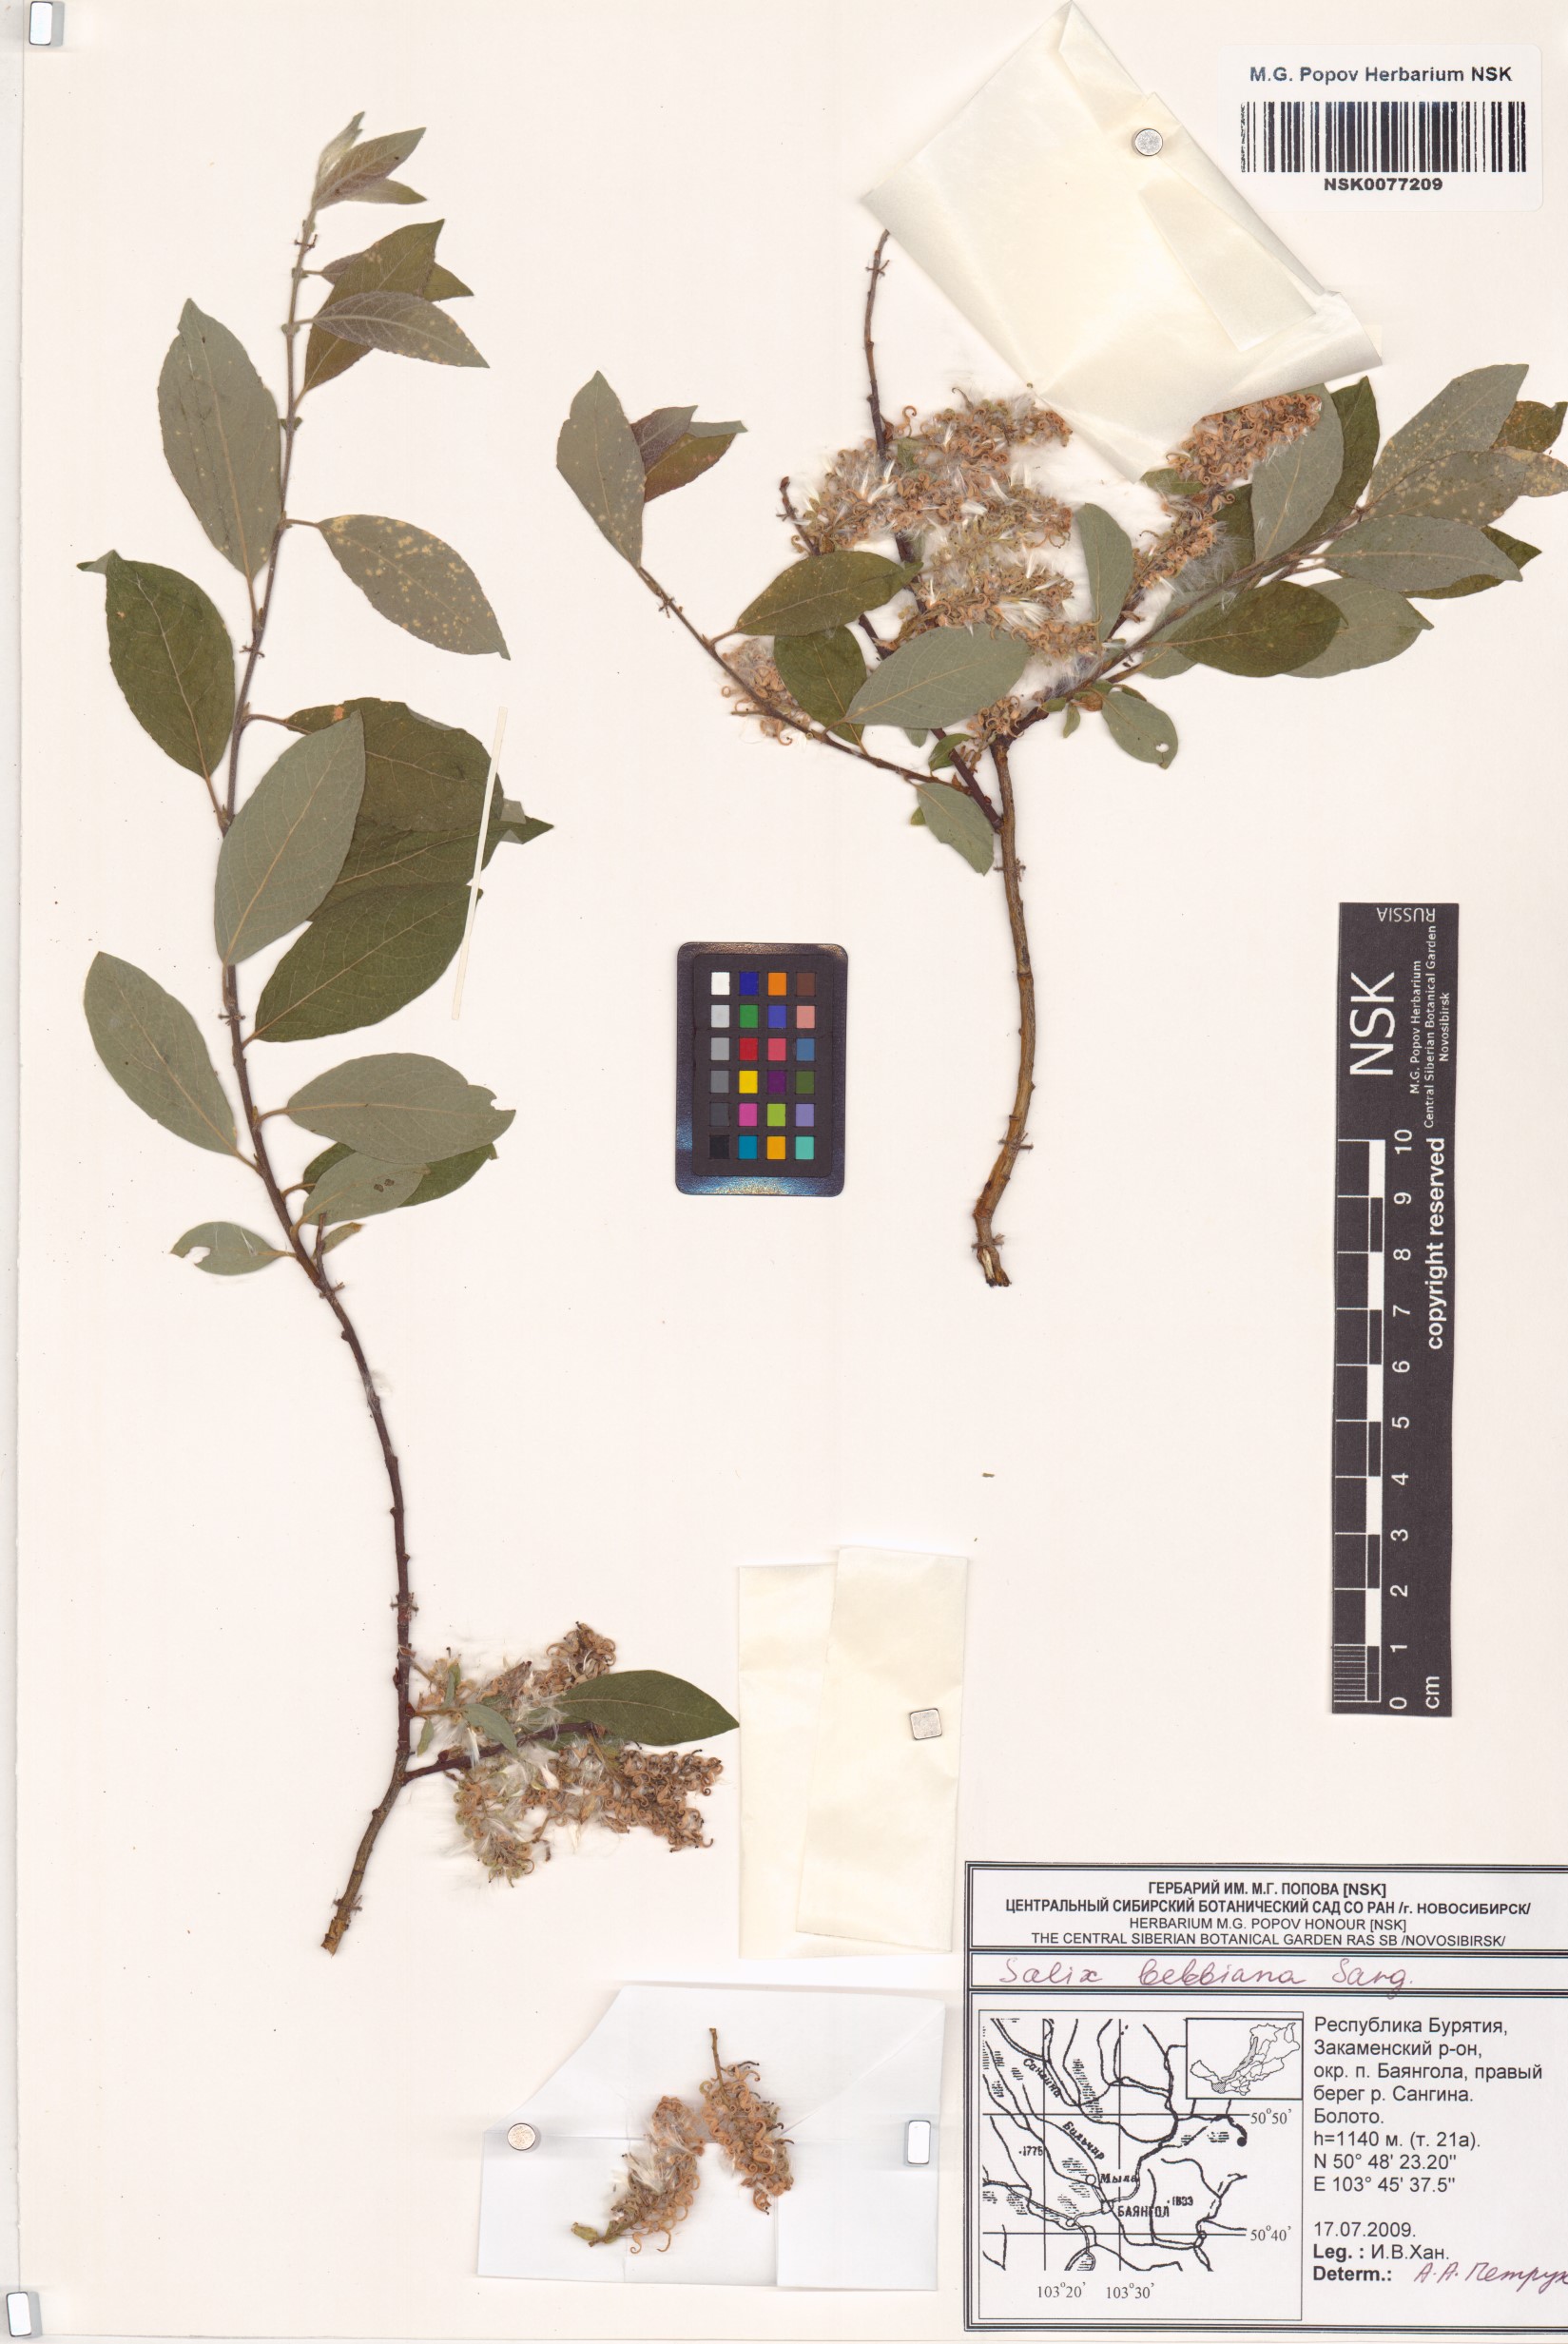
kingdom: Plantae
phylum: Tracheophyta
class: Magnoliopsida
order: Malpighiales
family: Salicaceae
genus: Salix
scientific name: Salix bebbiana
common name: Bebb's willow
